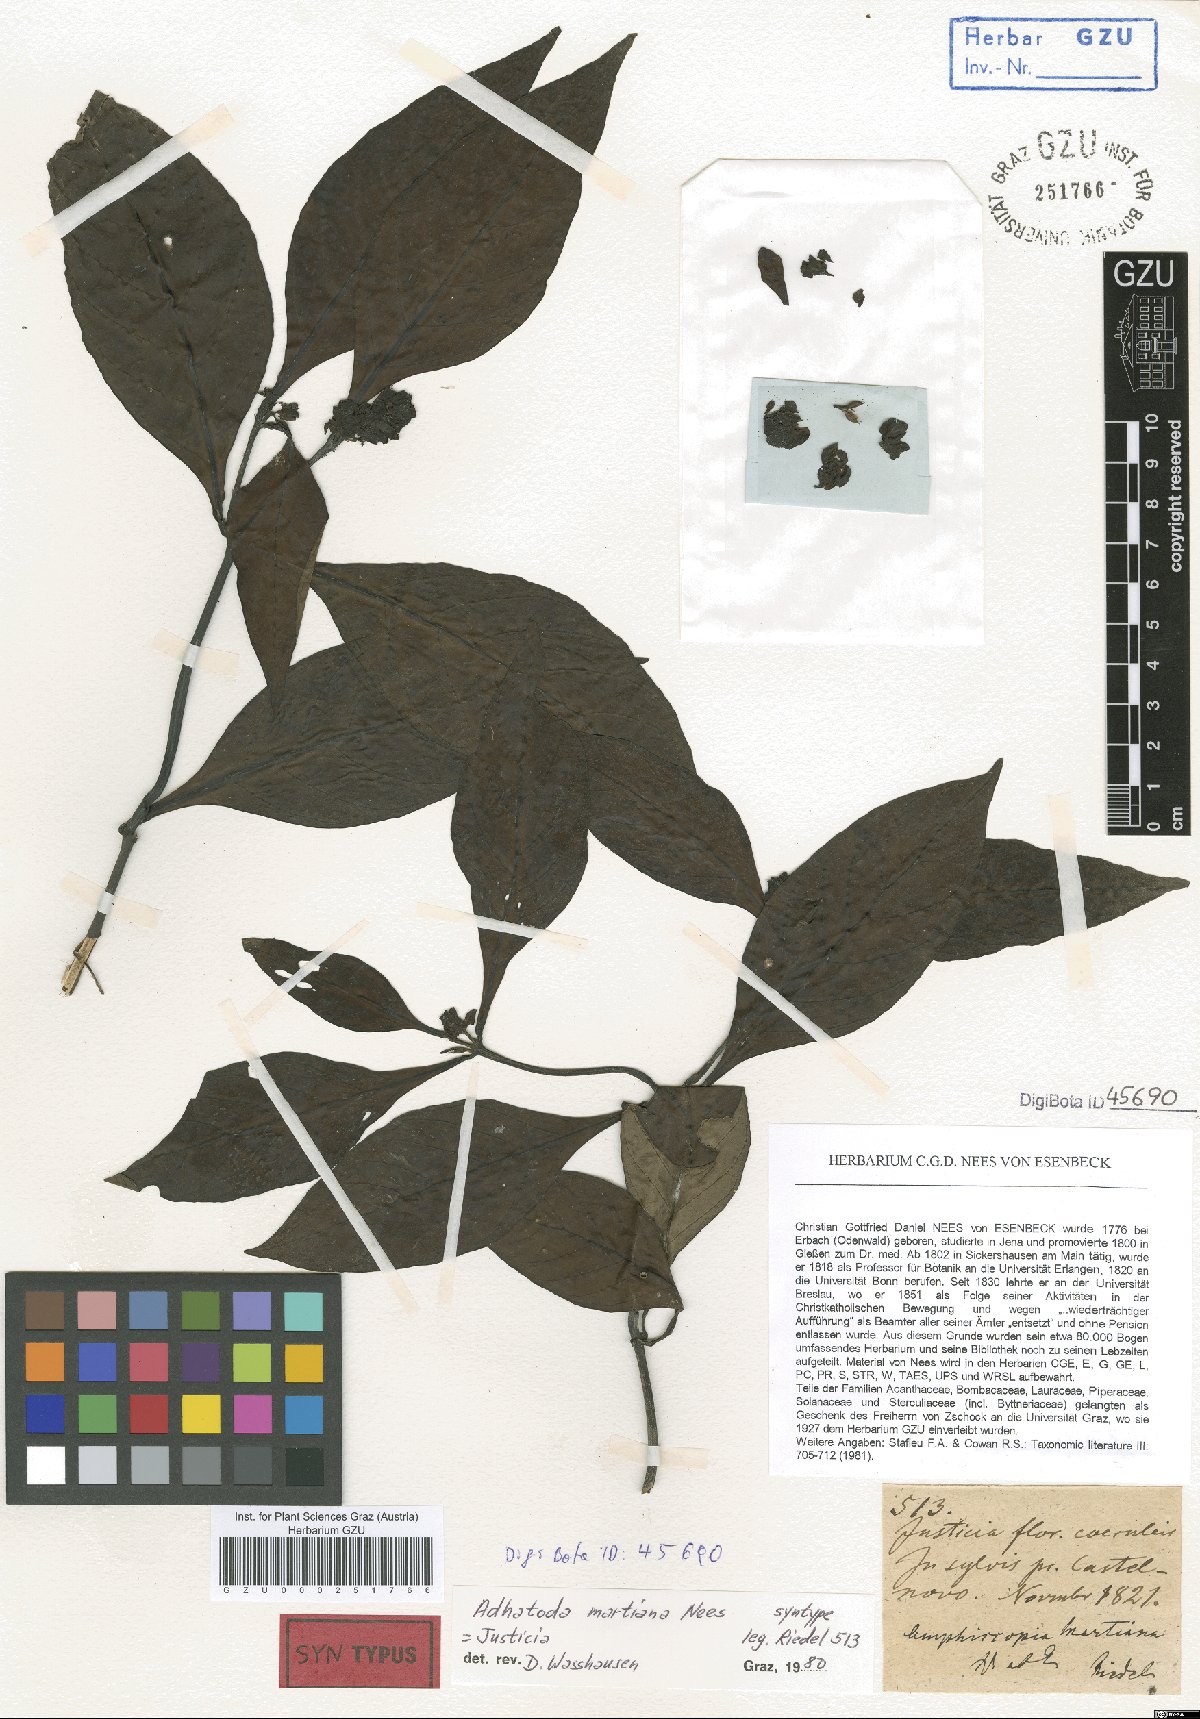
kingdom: Plantae
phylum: Tracheophyta
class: Magnoliopsida
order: Lamiales
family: Acanthaceae
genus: Justicia
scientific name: Justicia martiana
